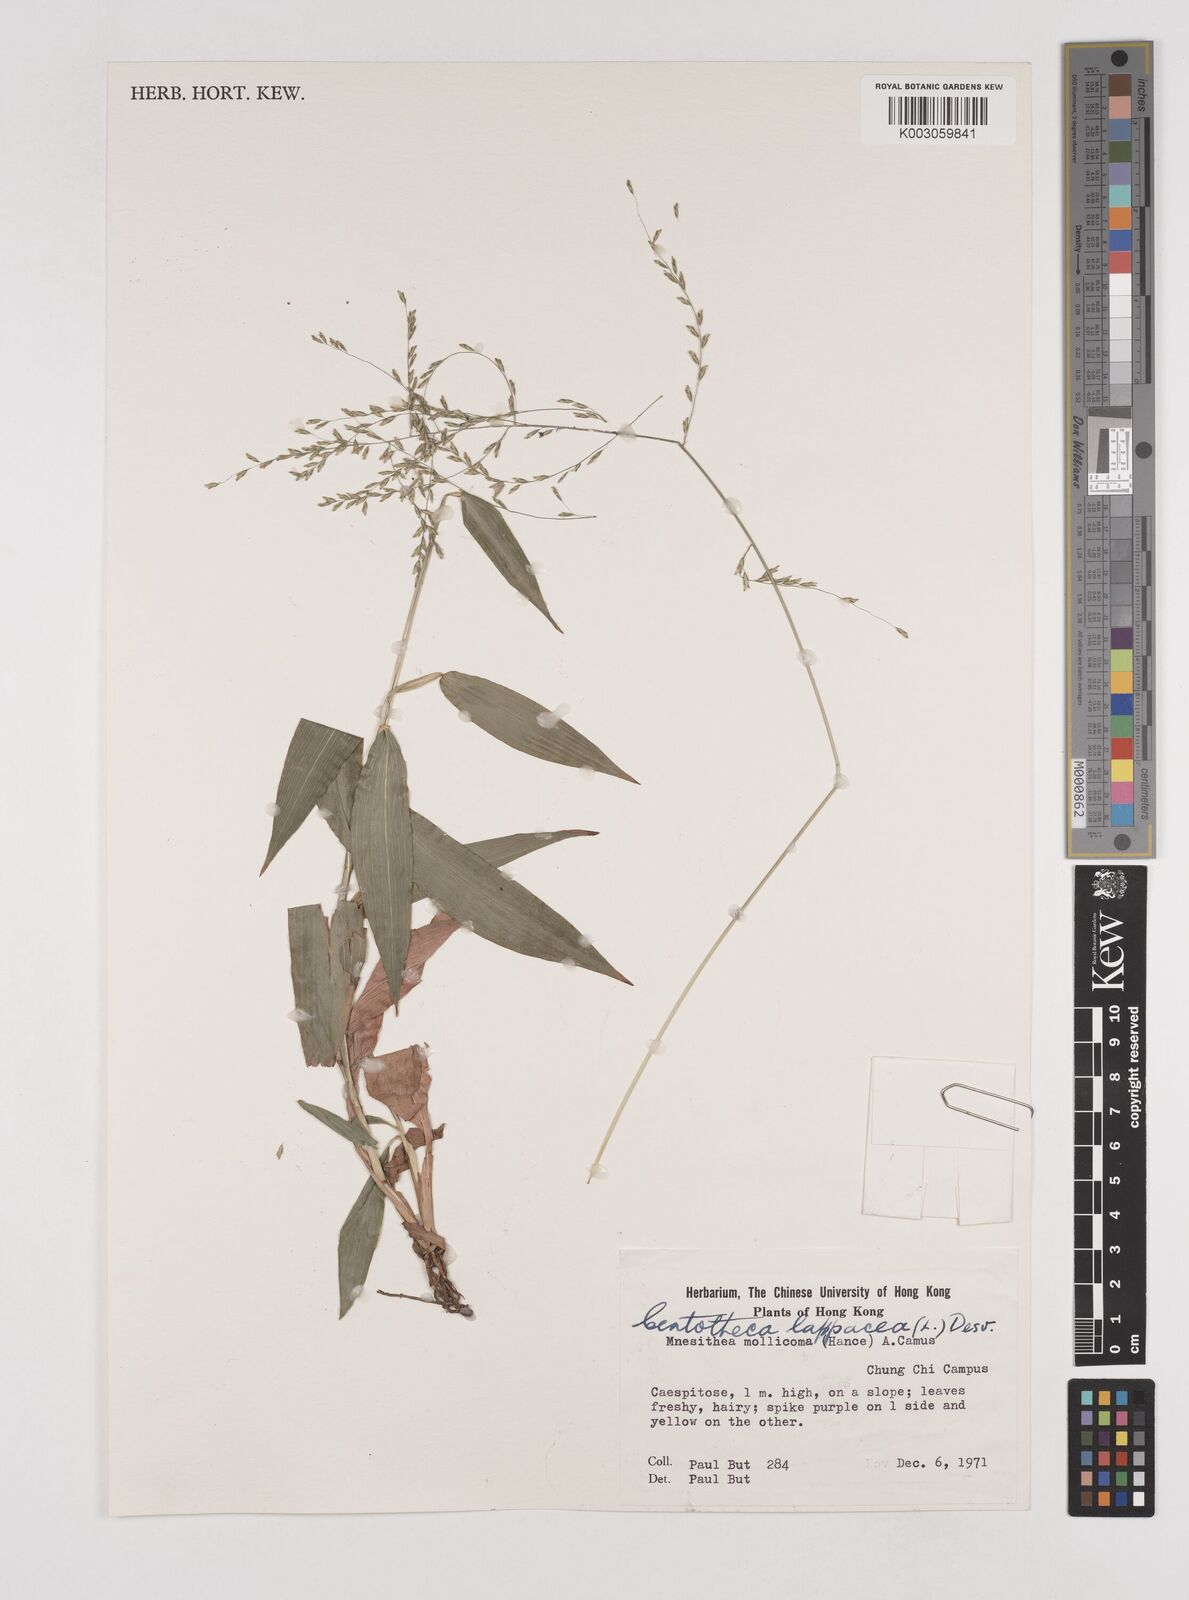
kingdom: Plantae
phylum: Tracheophyta
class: Liliopsida
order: Poales
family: Poaceae
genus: Centotheca
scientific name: Centotheca lappacea
